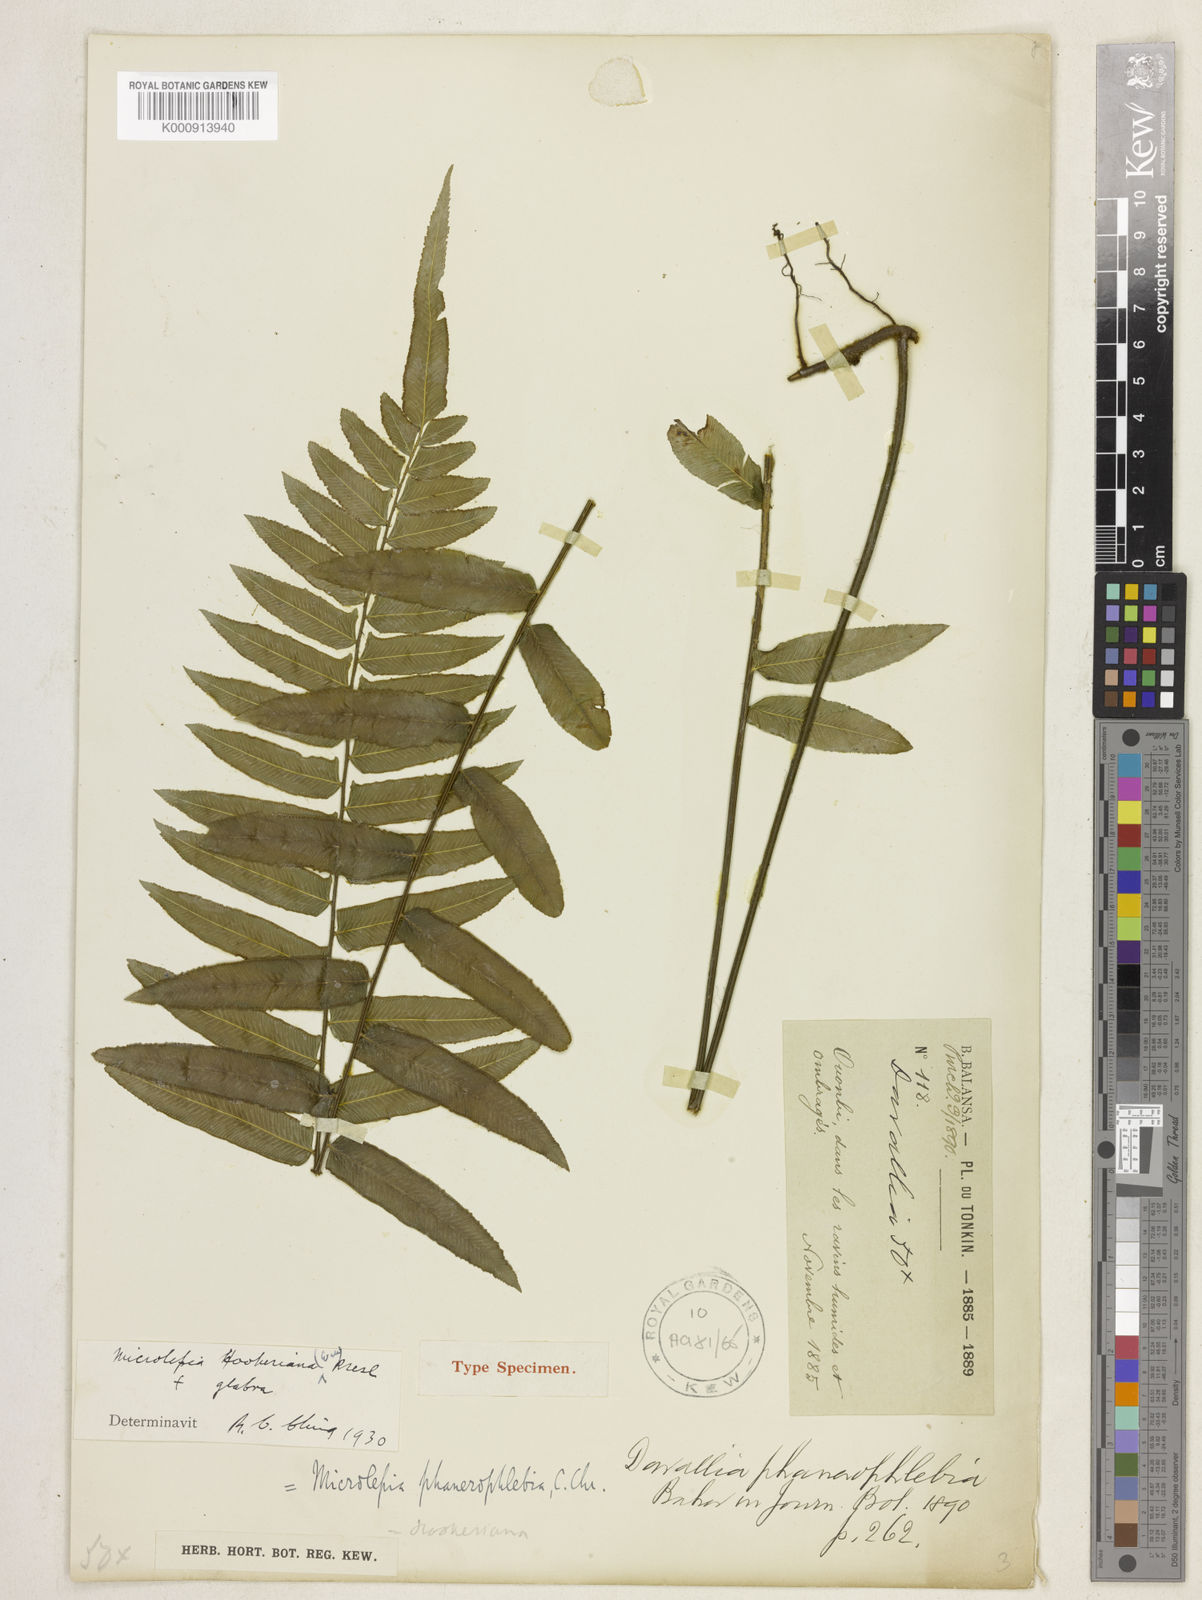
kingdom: Plantae
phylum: Tracheophyta
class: Polypodiopsida
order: Polypodiales
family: Dennstaedtiaceae
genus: Microlepia
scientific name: Microlepia hookeriana
